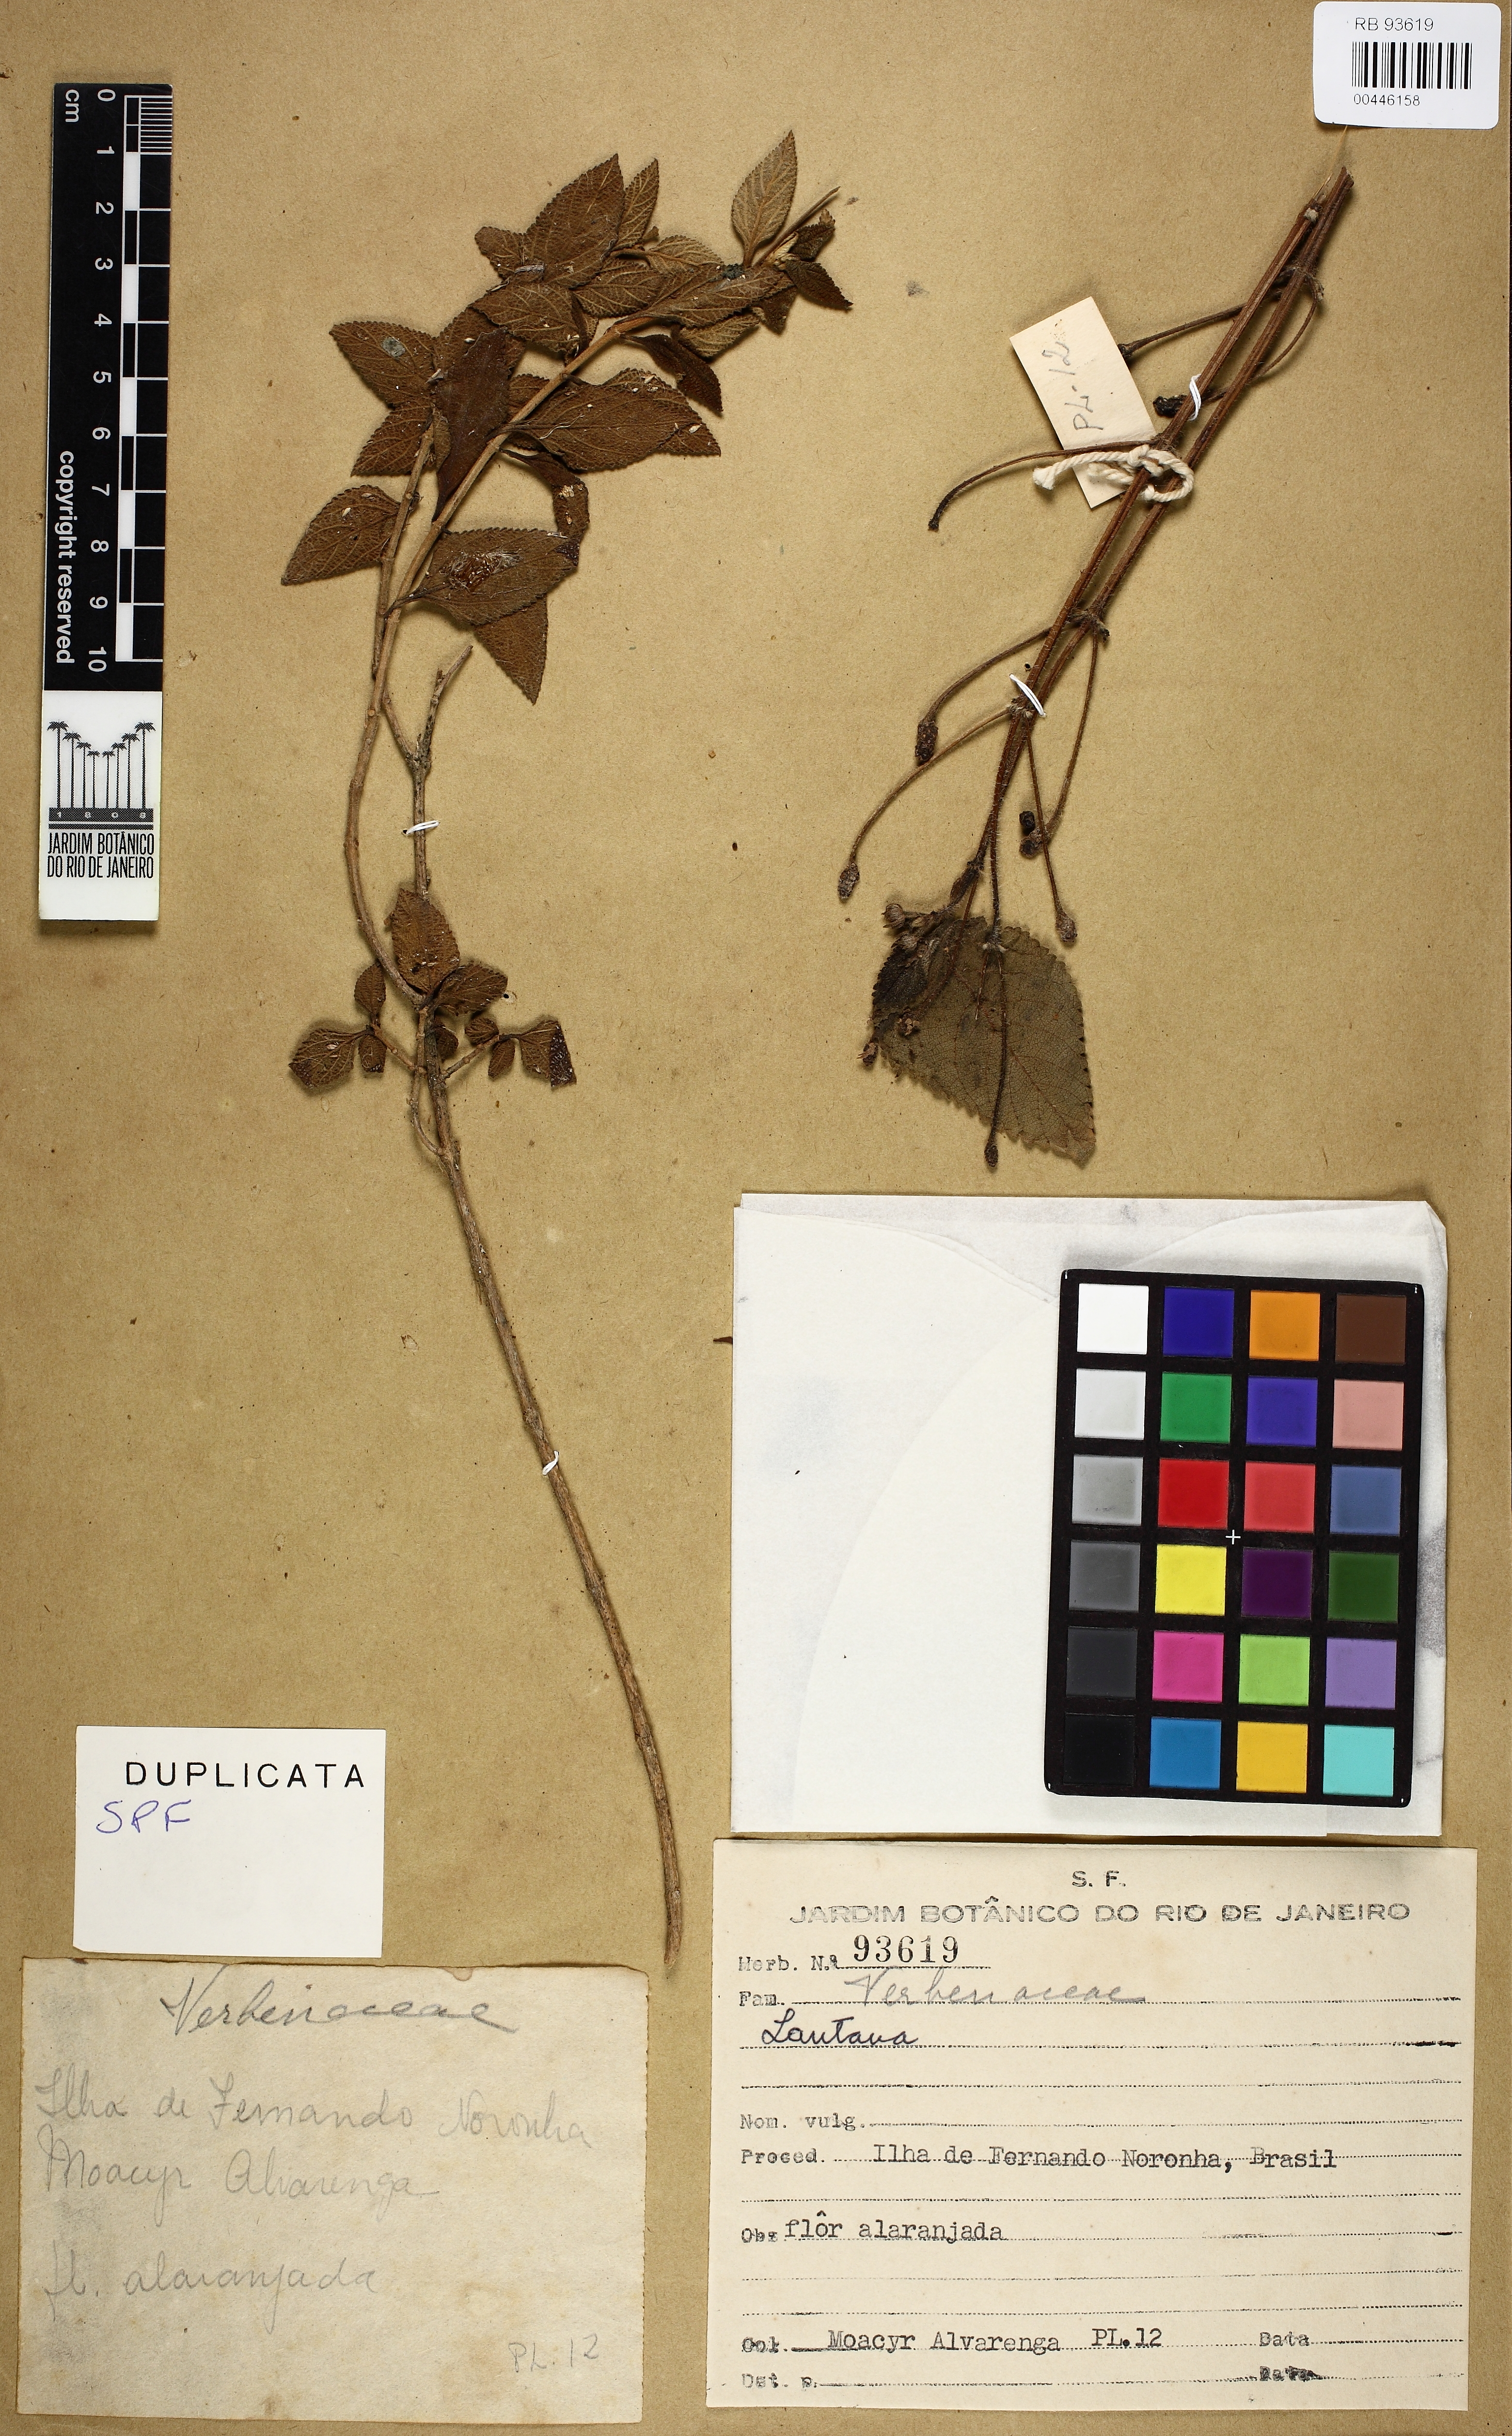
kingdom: Plantae
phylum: Tracheophyta
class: Magnoliopsida
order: Lamiales
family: Verbenaceae
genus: Lantana
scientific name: Lantana
